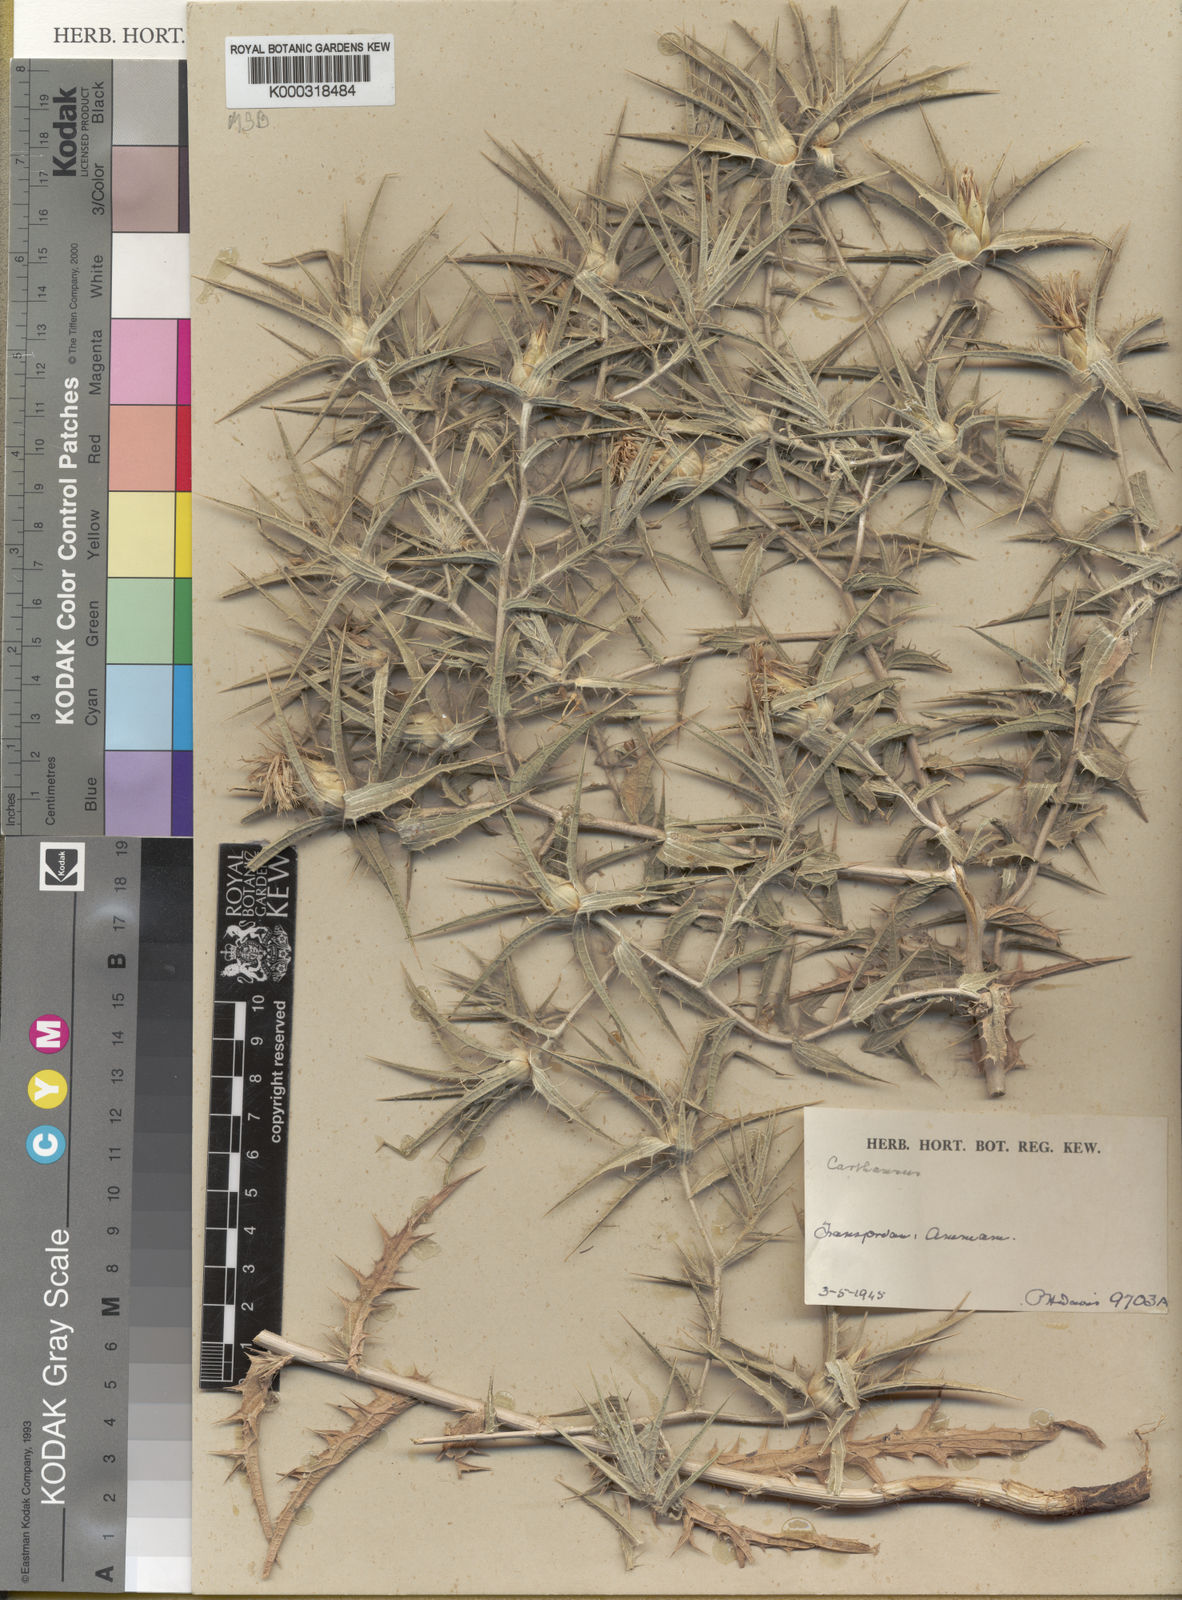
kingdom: Plantae
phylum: Tracheophyta
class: Magnoliopsida
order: Asterales
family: Asteraceae
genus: Carthamus
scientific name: Carthamus glaucus
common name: Mediterranean thistle
